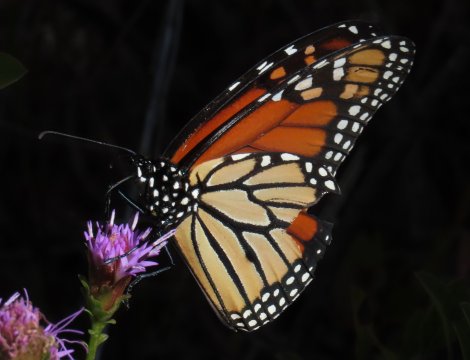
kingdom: Animalia
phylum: Arthropoda
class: Insecta
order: Lepidoptera
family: Nymphalidae
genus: Danaus
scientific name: Danaus plexippus
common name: Monarch
